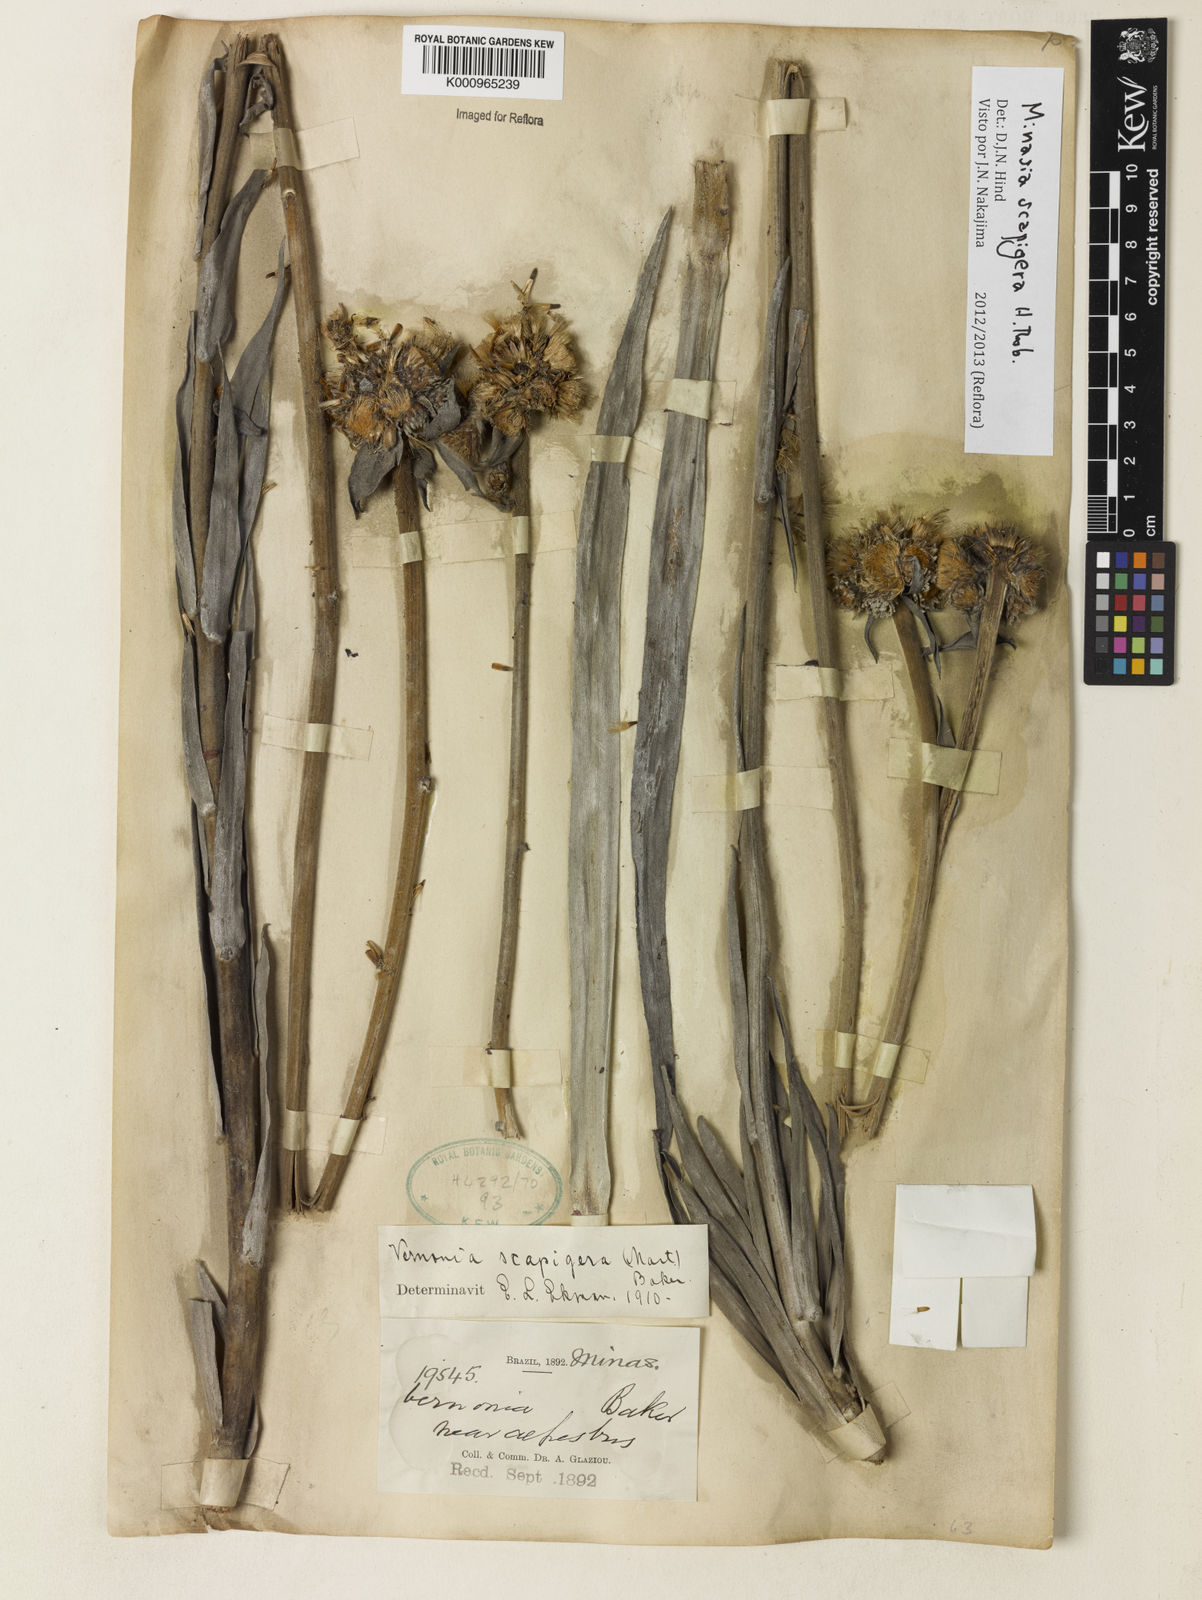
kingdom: Plantae
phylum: Tracheophyta
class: Magnoliopsida
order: Asterales
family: Asteraceae
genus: Minasia
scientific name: Minasia scapigera
